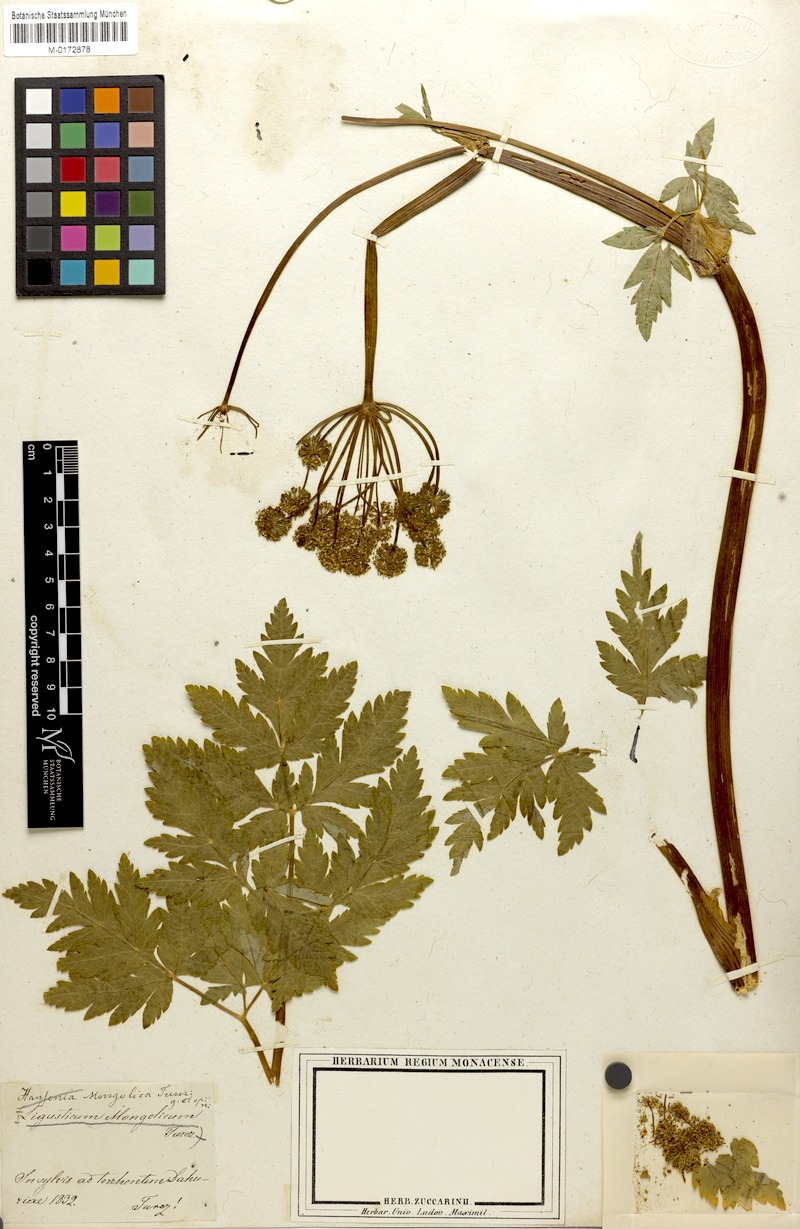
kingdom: Plantae
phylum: Tracheophyta
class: Magnoliopsida
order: Apiales
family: Apiaceae
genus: Hansenia
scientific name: Hansenia mongolica
